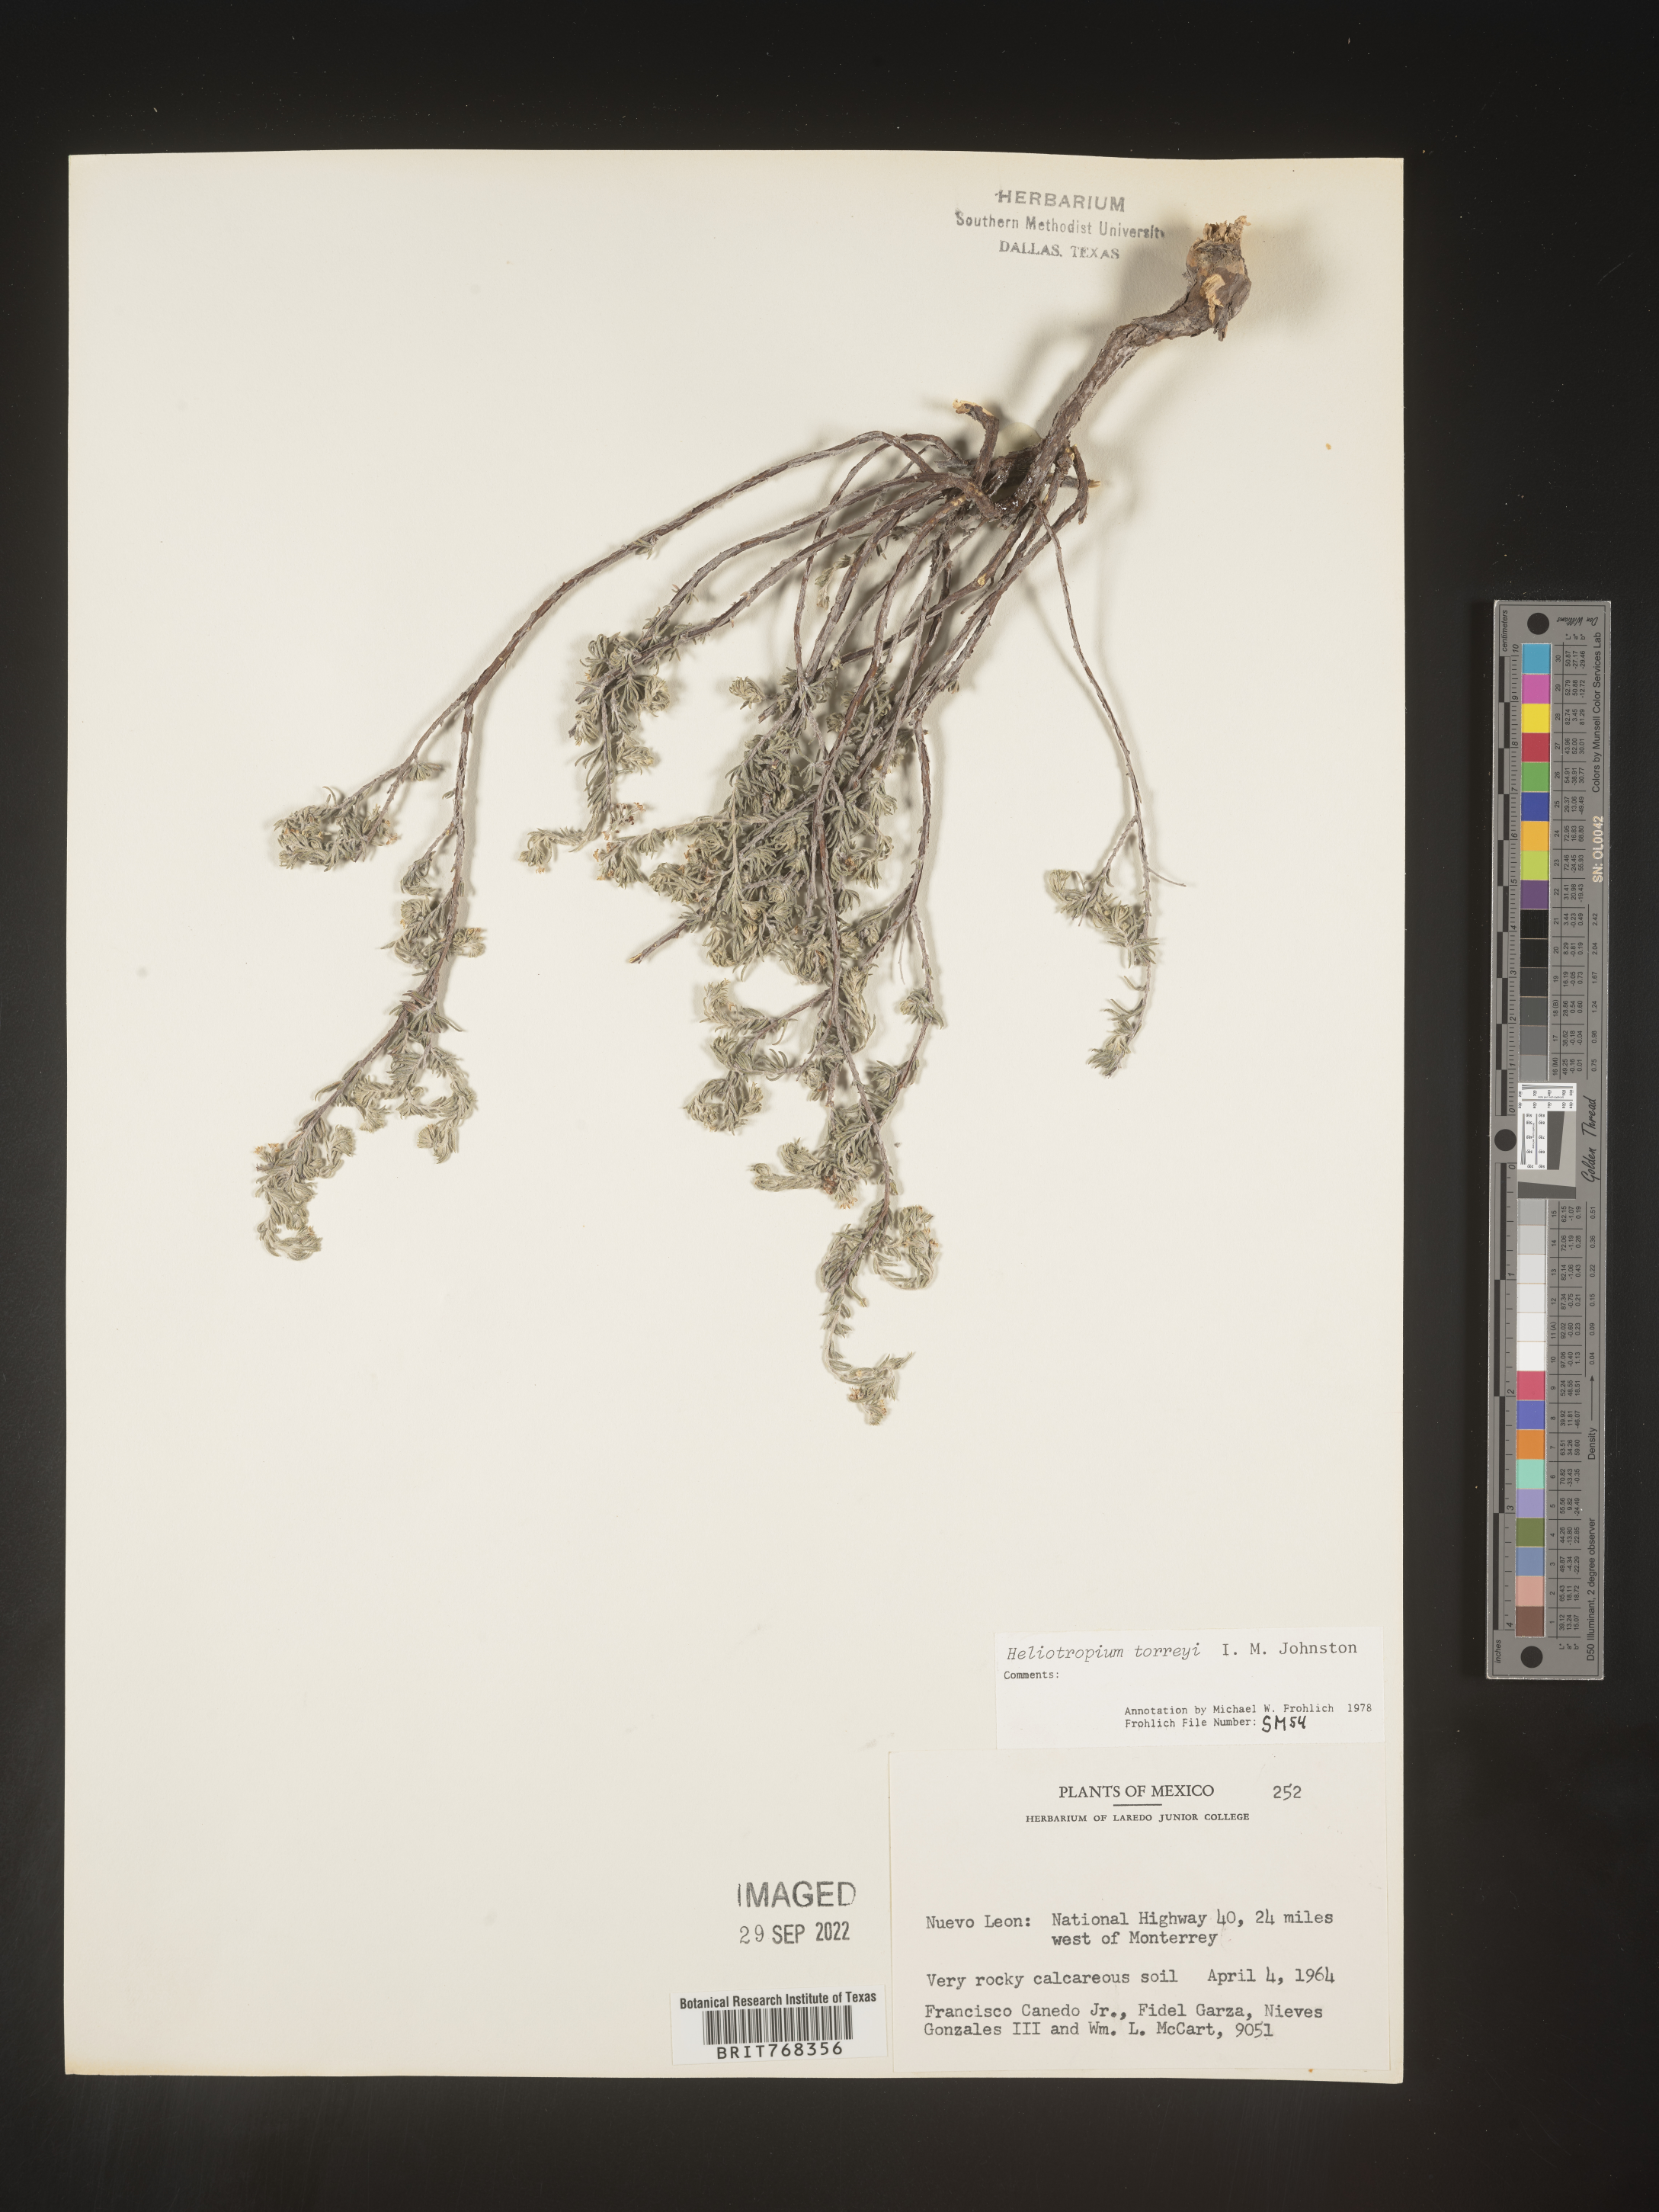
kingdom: Plantae
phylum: Tracheophyta
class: Magnoliopsida
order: Boraginales
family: Heliotropiaceae
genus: Heliotropium
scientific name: Heliotropium
